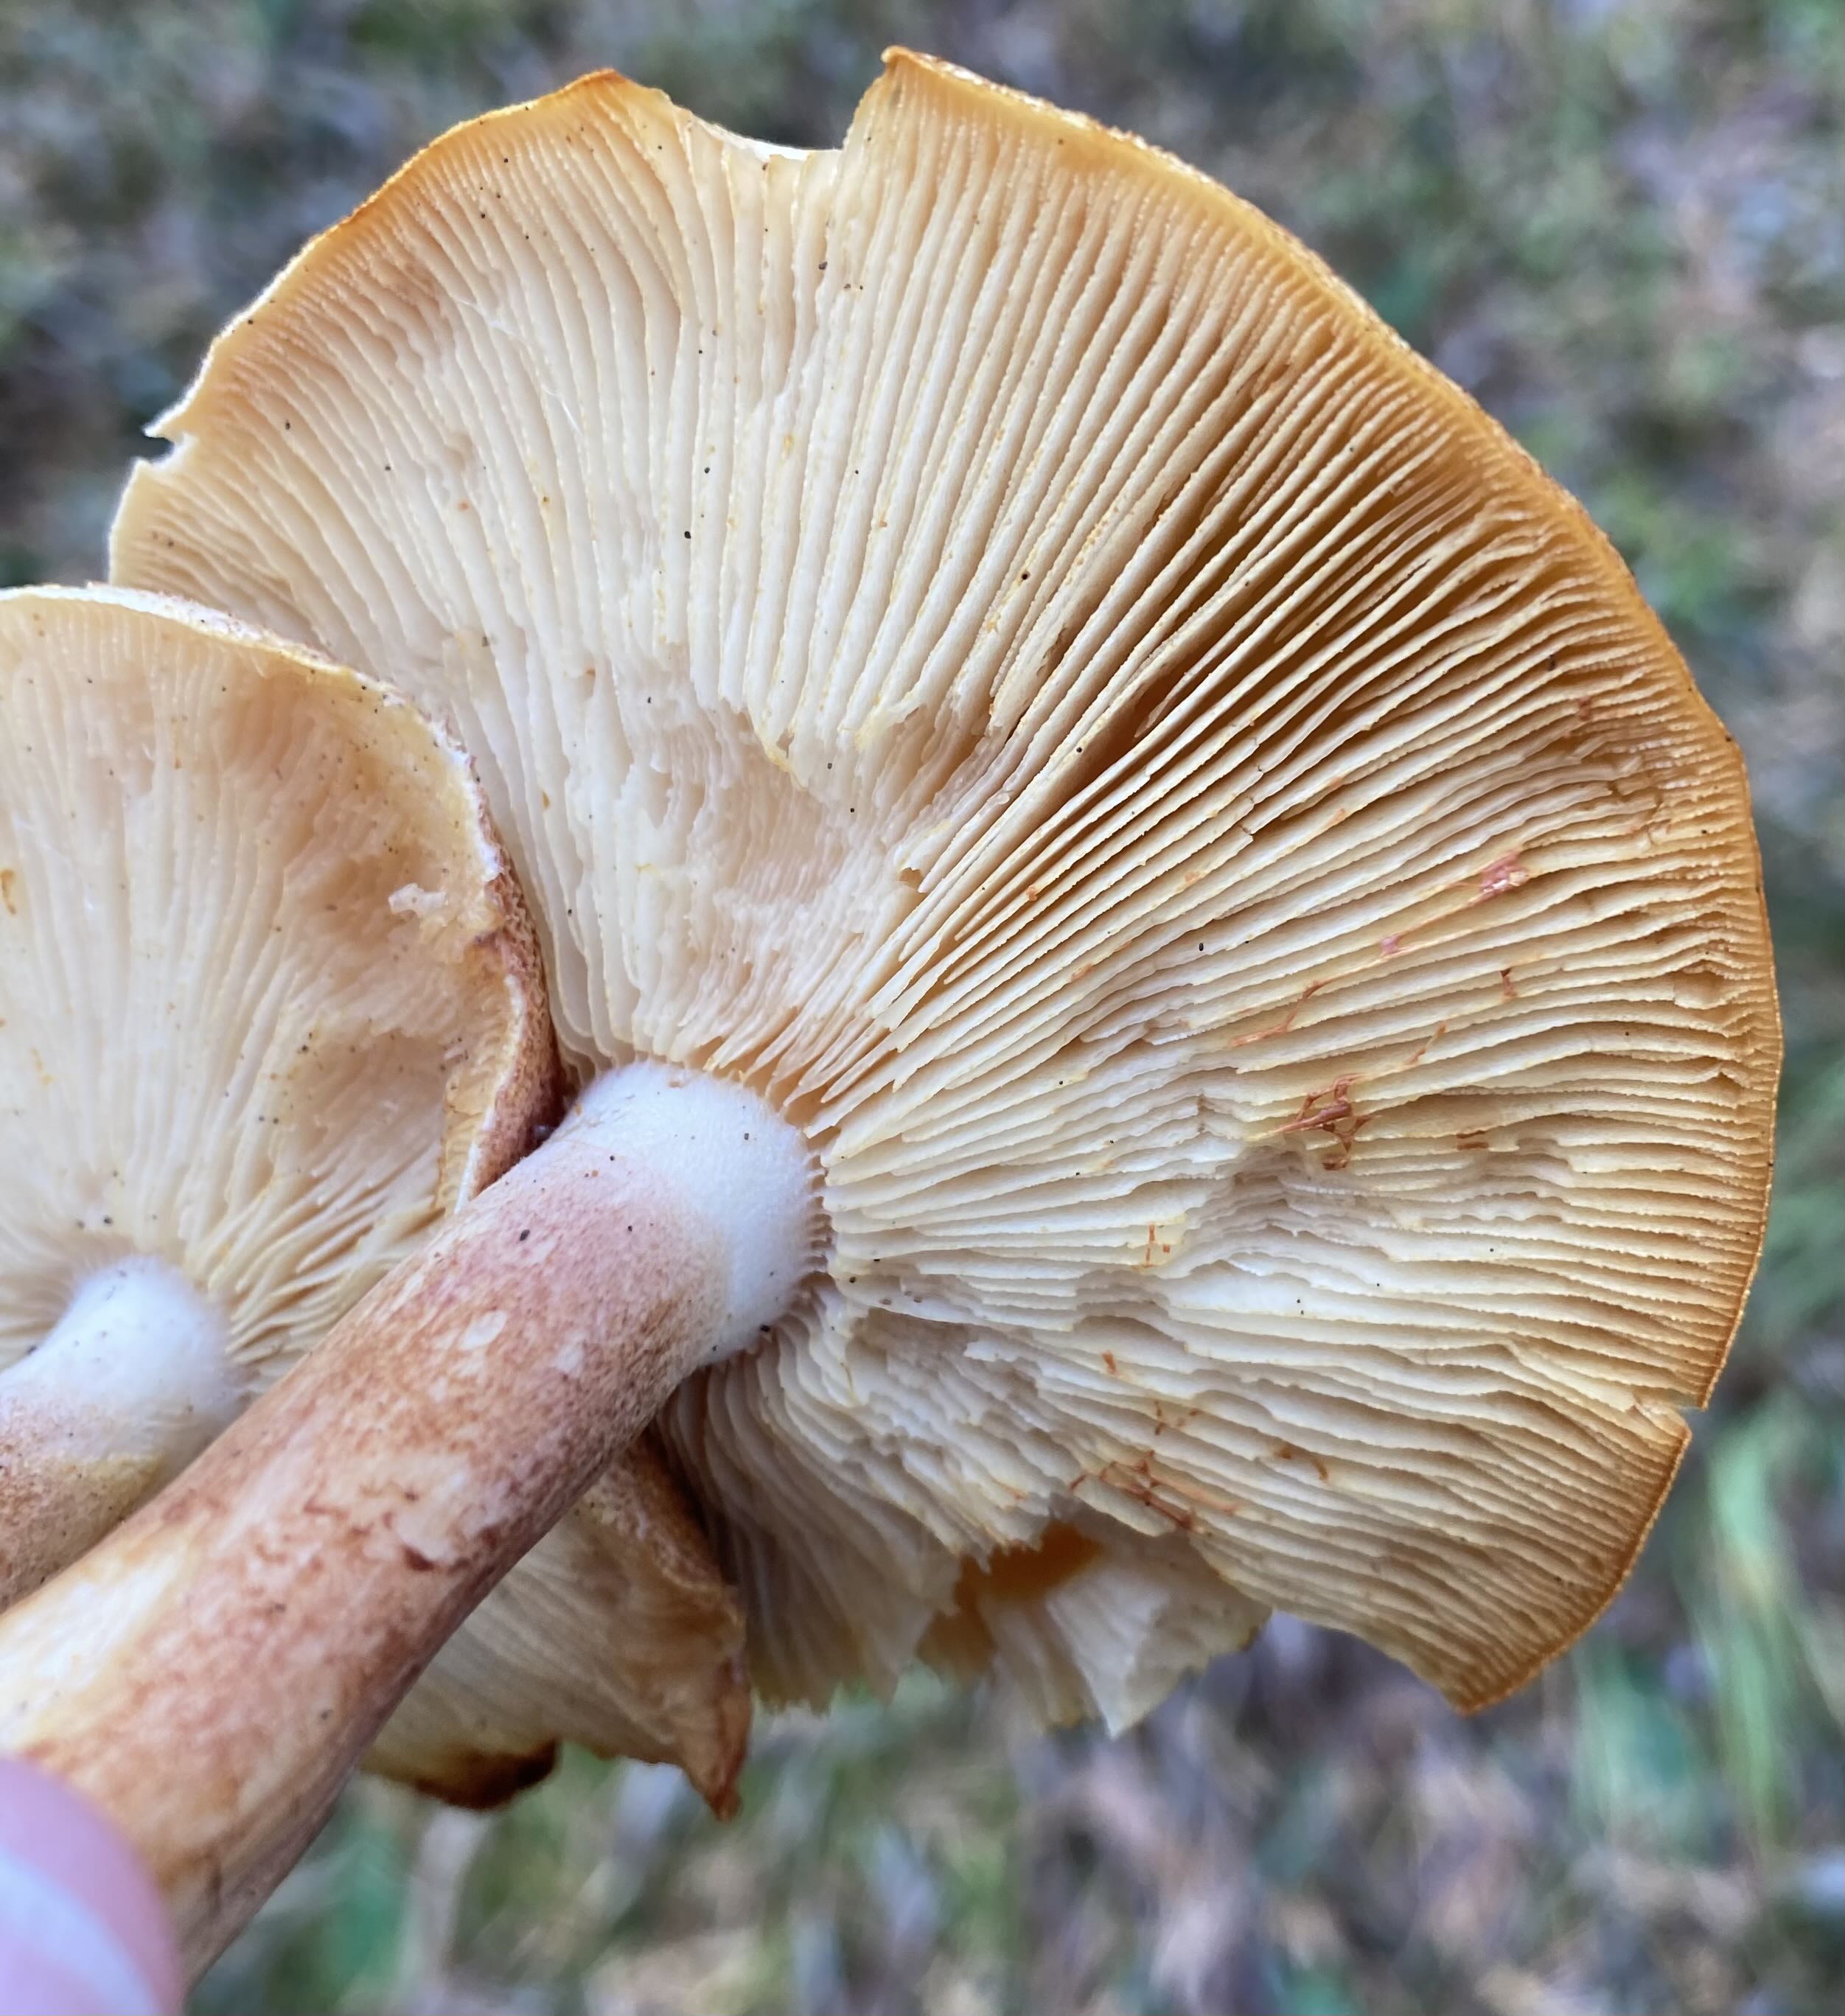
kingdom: Fungi
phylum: Basidiomycota
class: Agaricomycetes
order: Agaricales
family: Tricholomataceae
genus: Tricholomopsis
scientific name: Tricholomopsis rutilans
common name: purpur-væbnerhat
